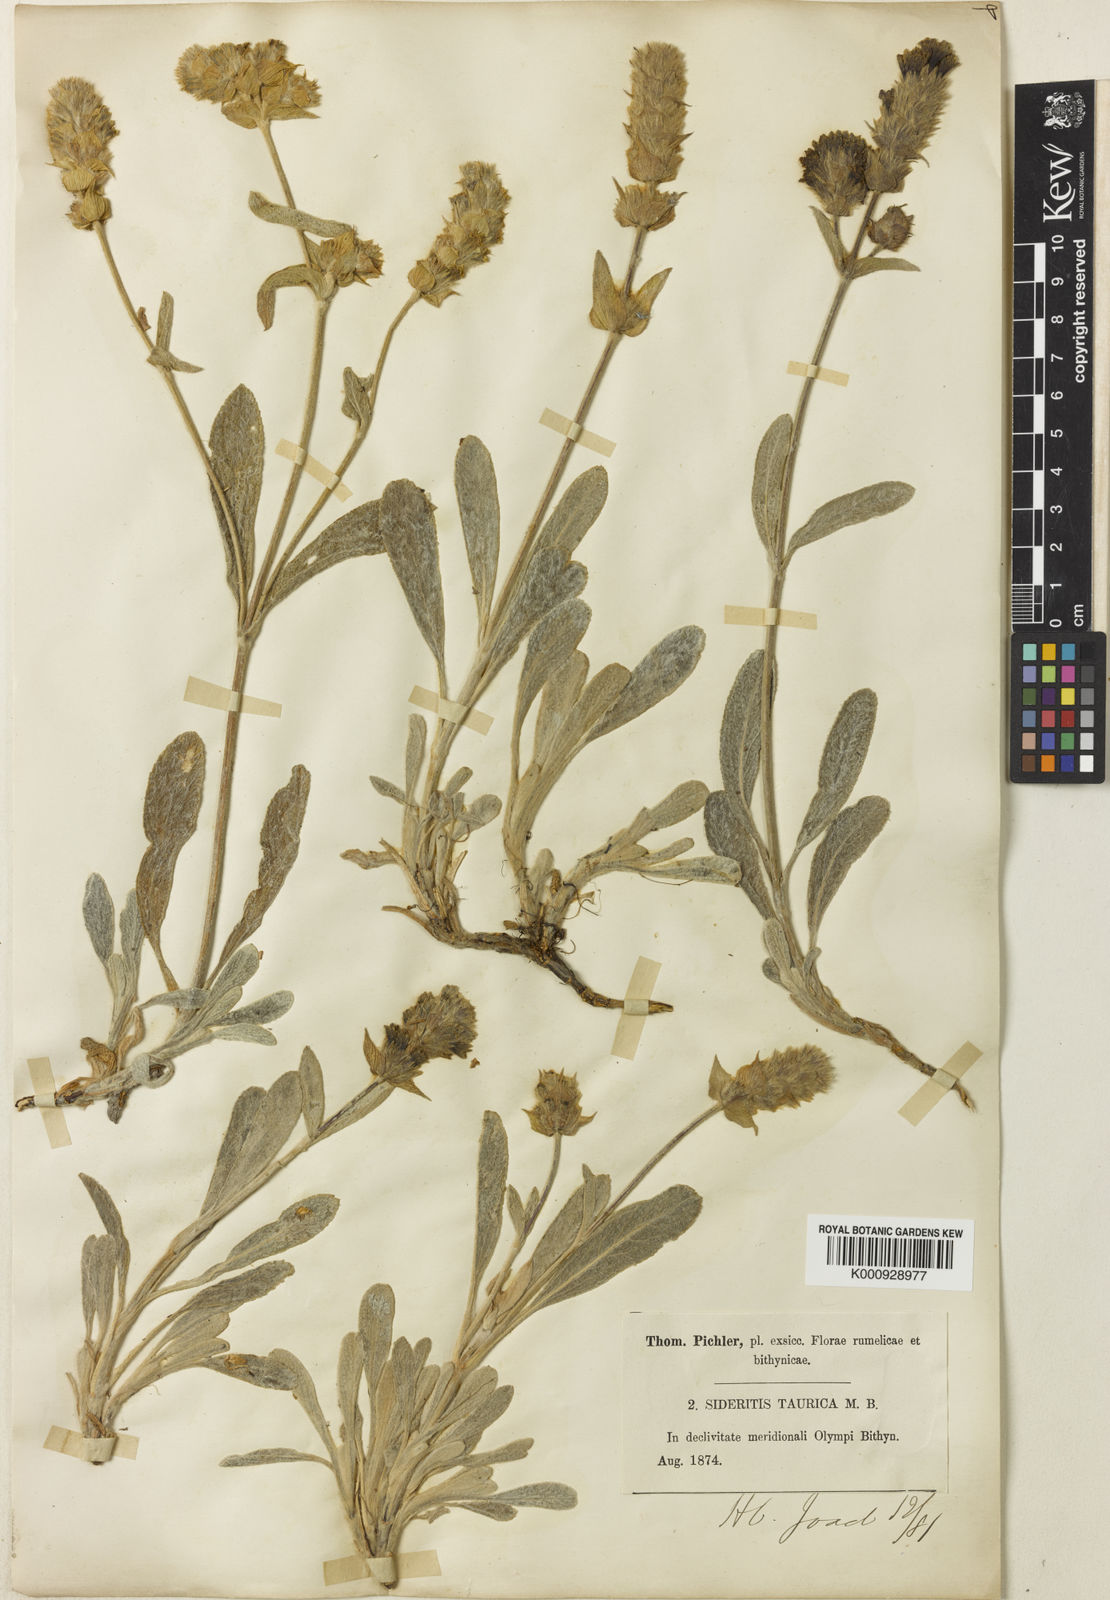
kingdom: Plantae
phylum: Tracheophyta
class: Magnoliopsida
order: Lamiales
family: Lamiaceae
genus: Sideritis
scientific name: Sideritis pisidica
